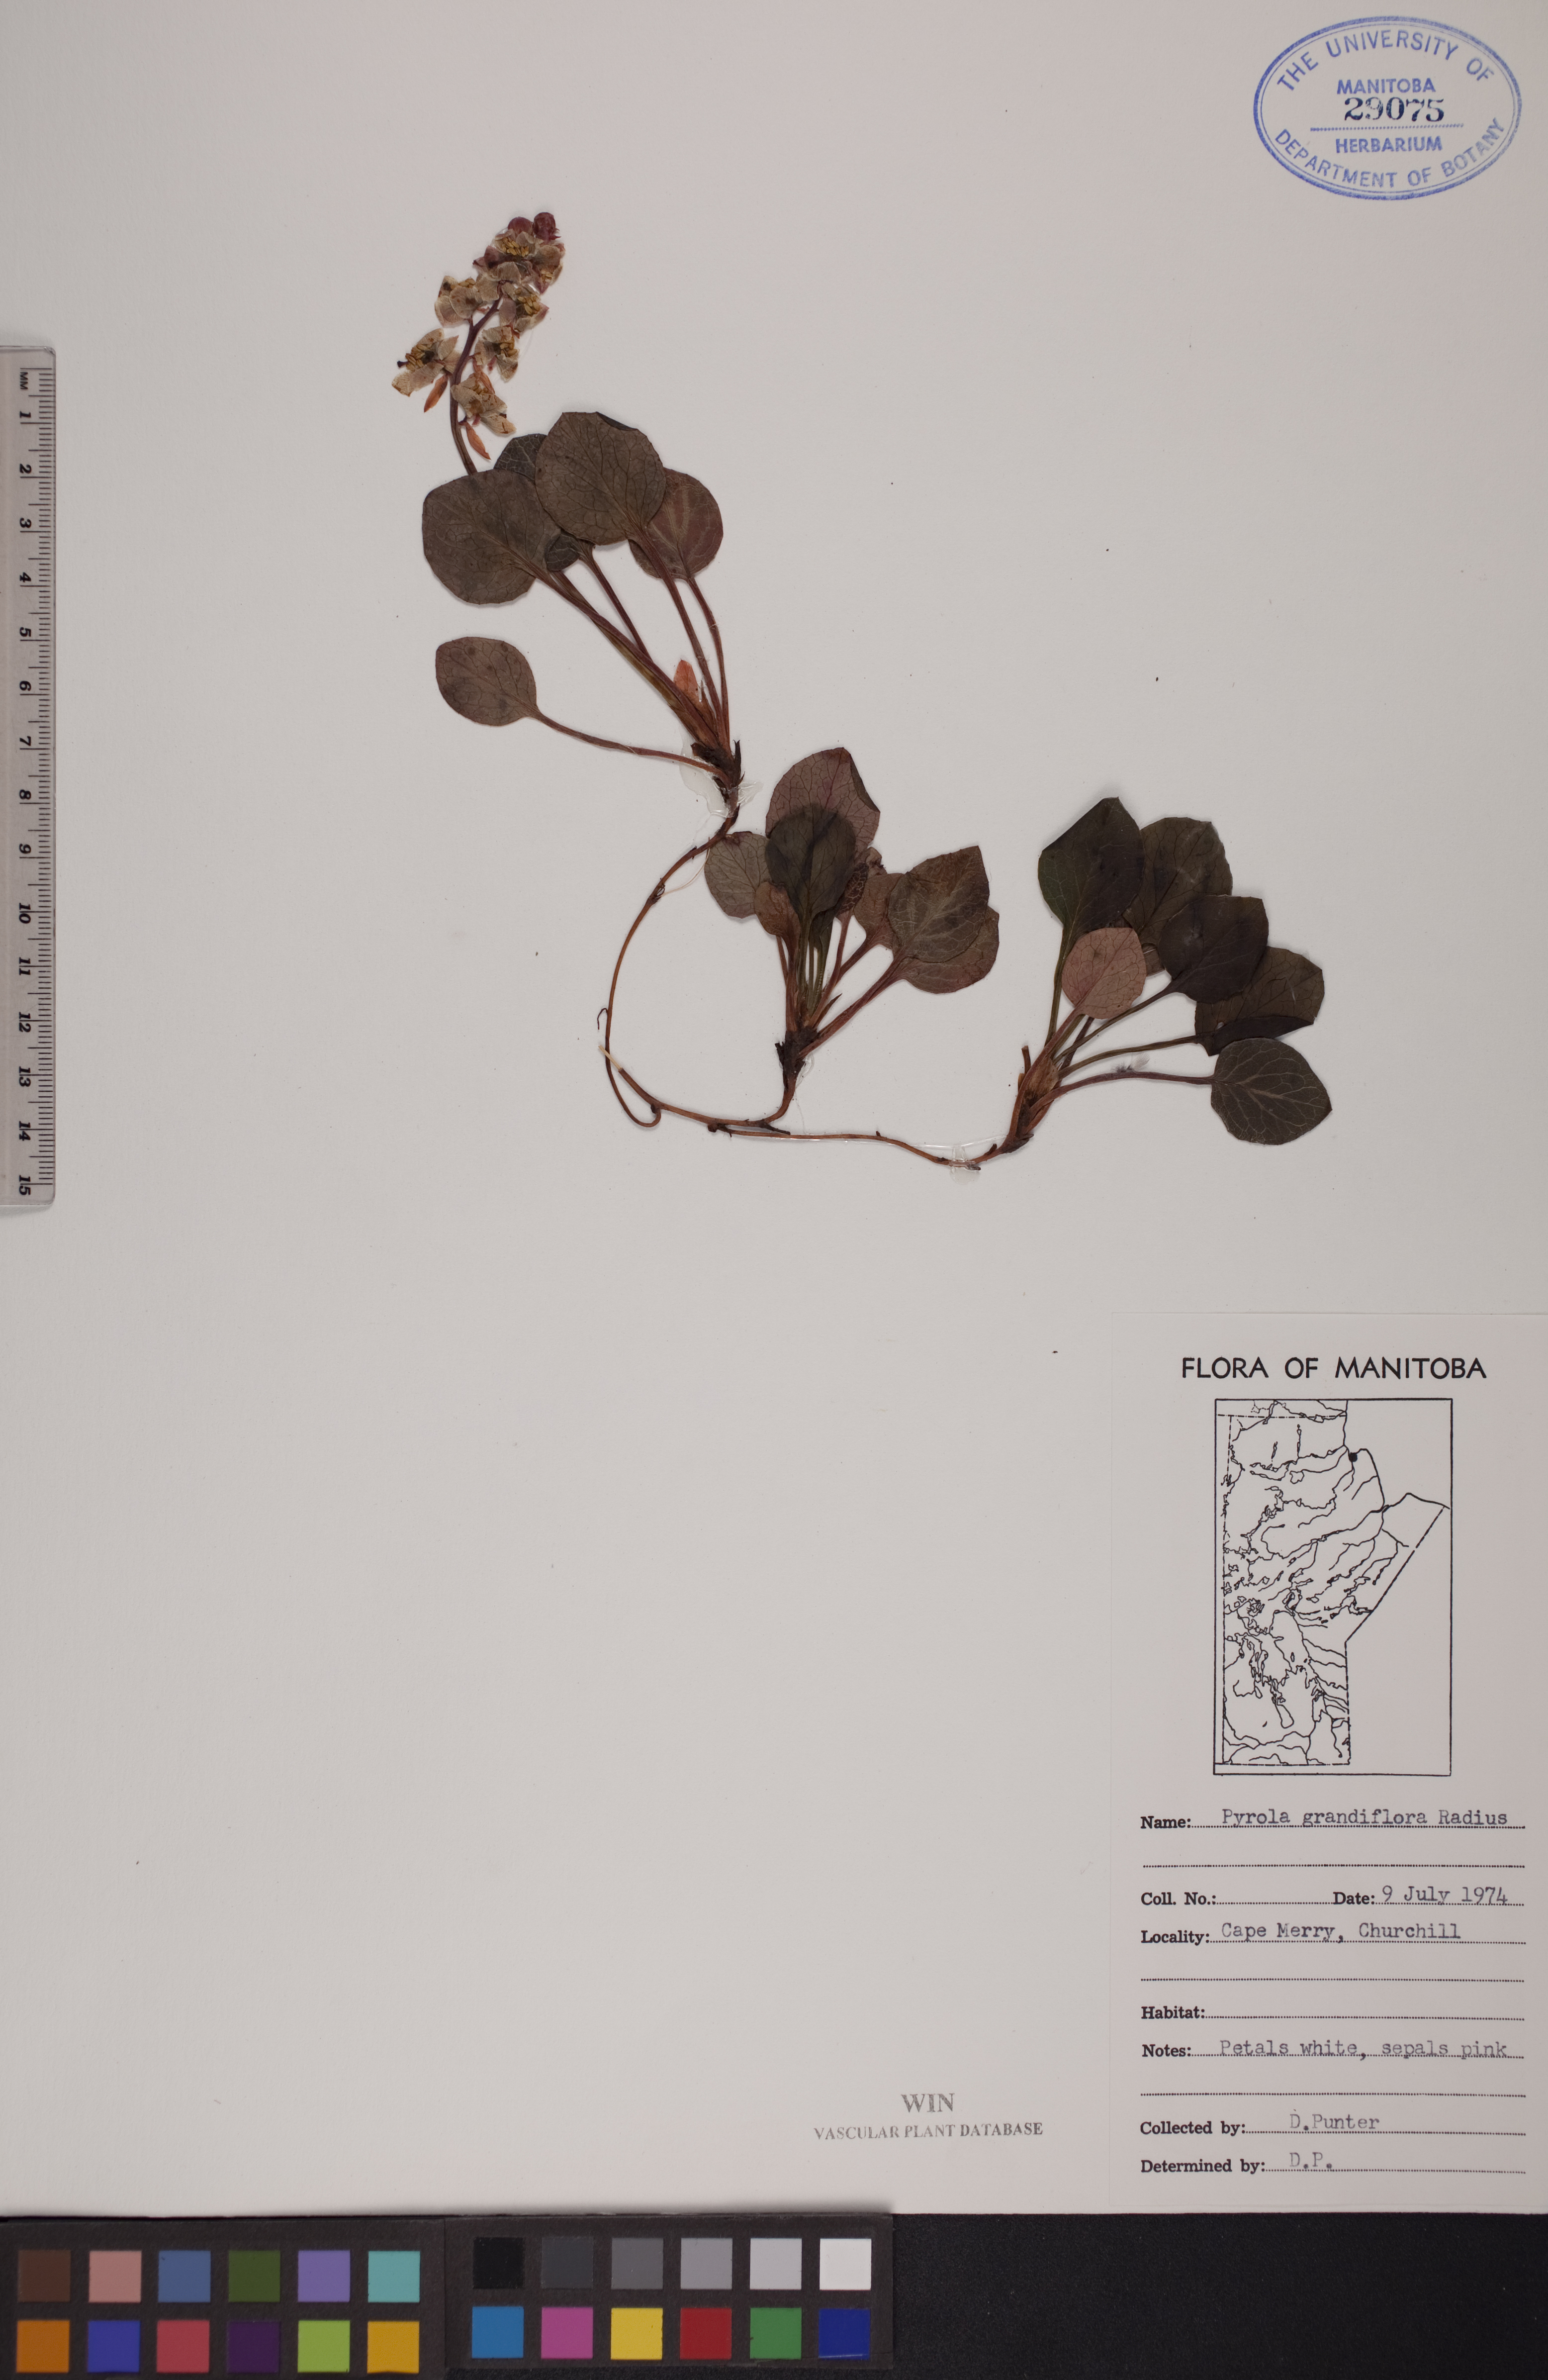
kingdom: Plantae
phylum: Tracheophyta
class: Magnoliopsida
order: Ericales
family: Ericaceae
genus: Pyrola
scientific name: Pyrola grandiflora
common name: Arctic pyrola
